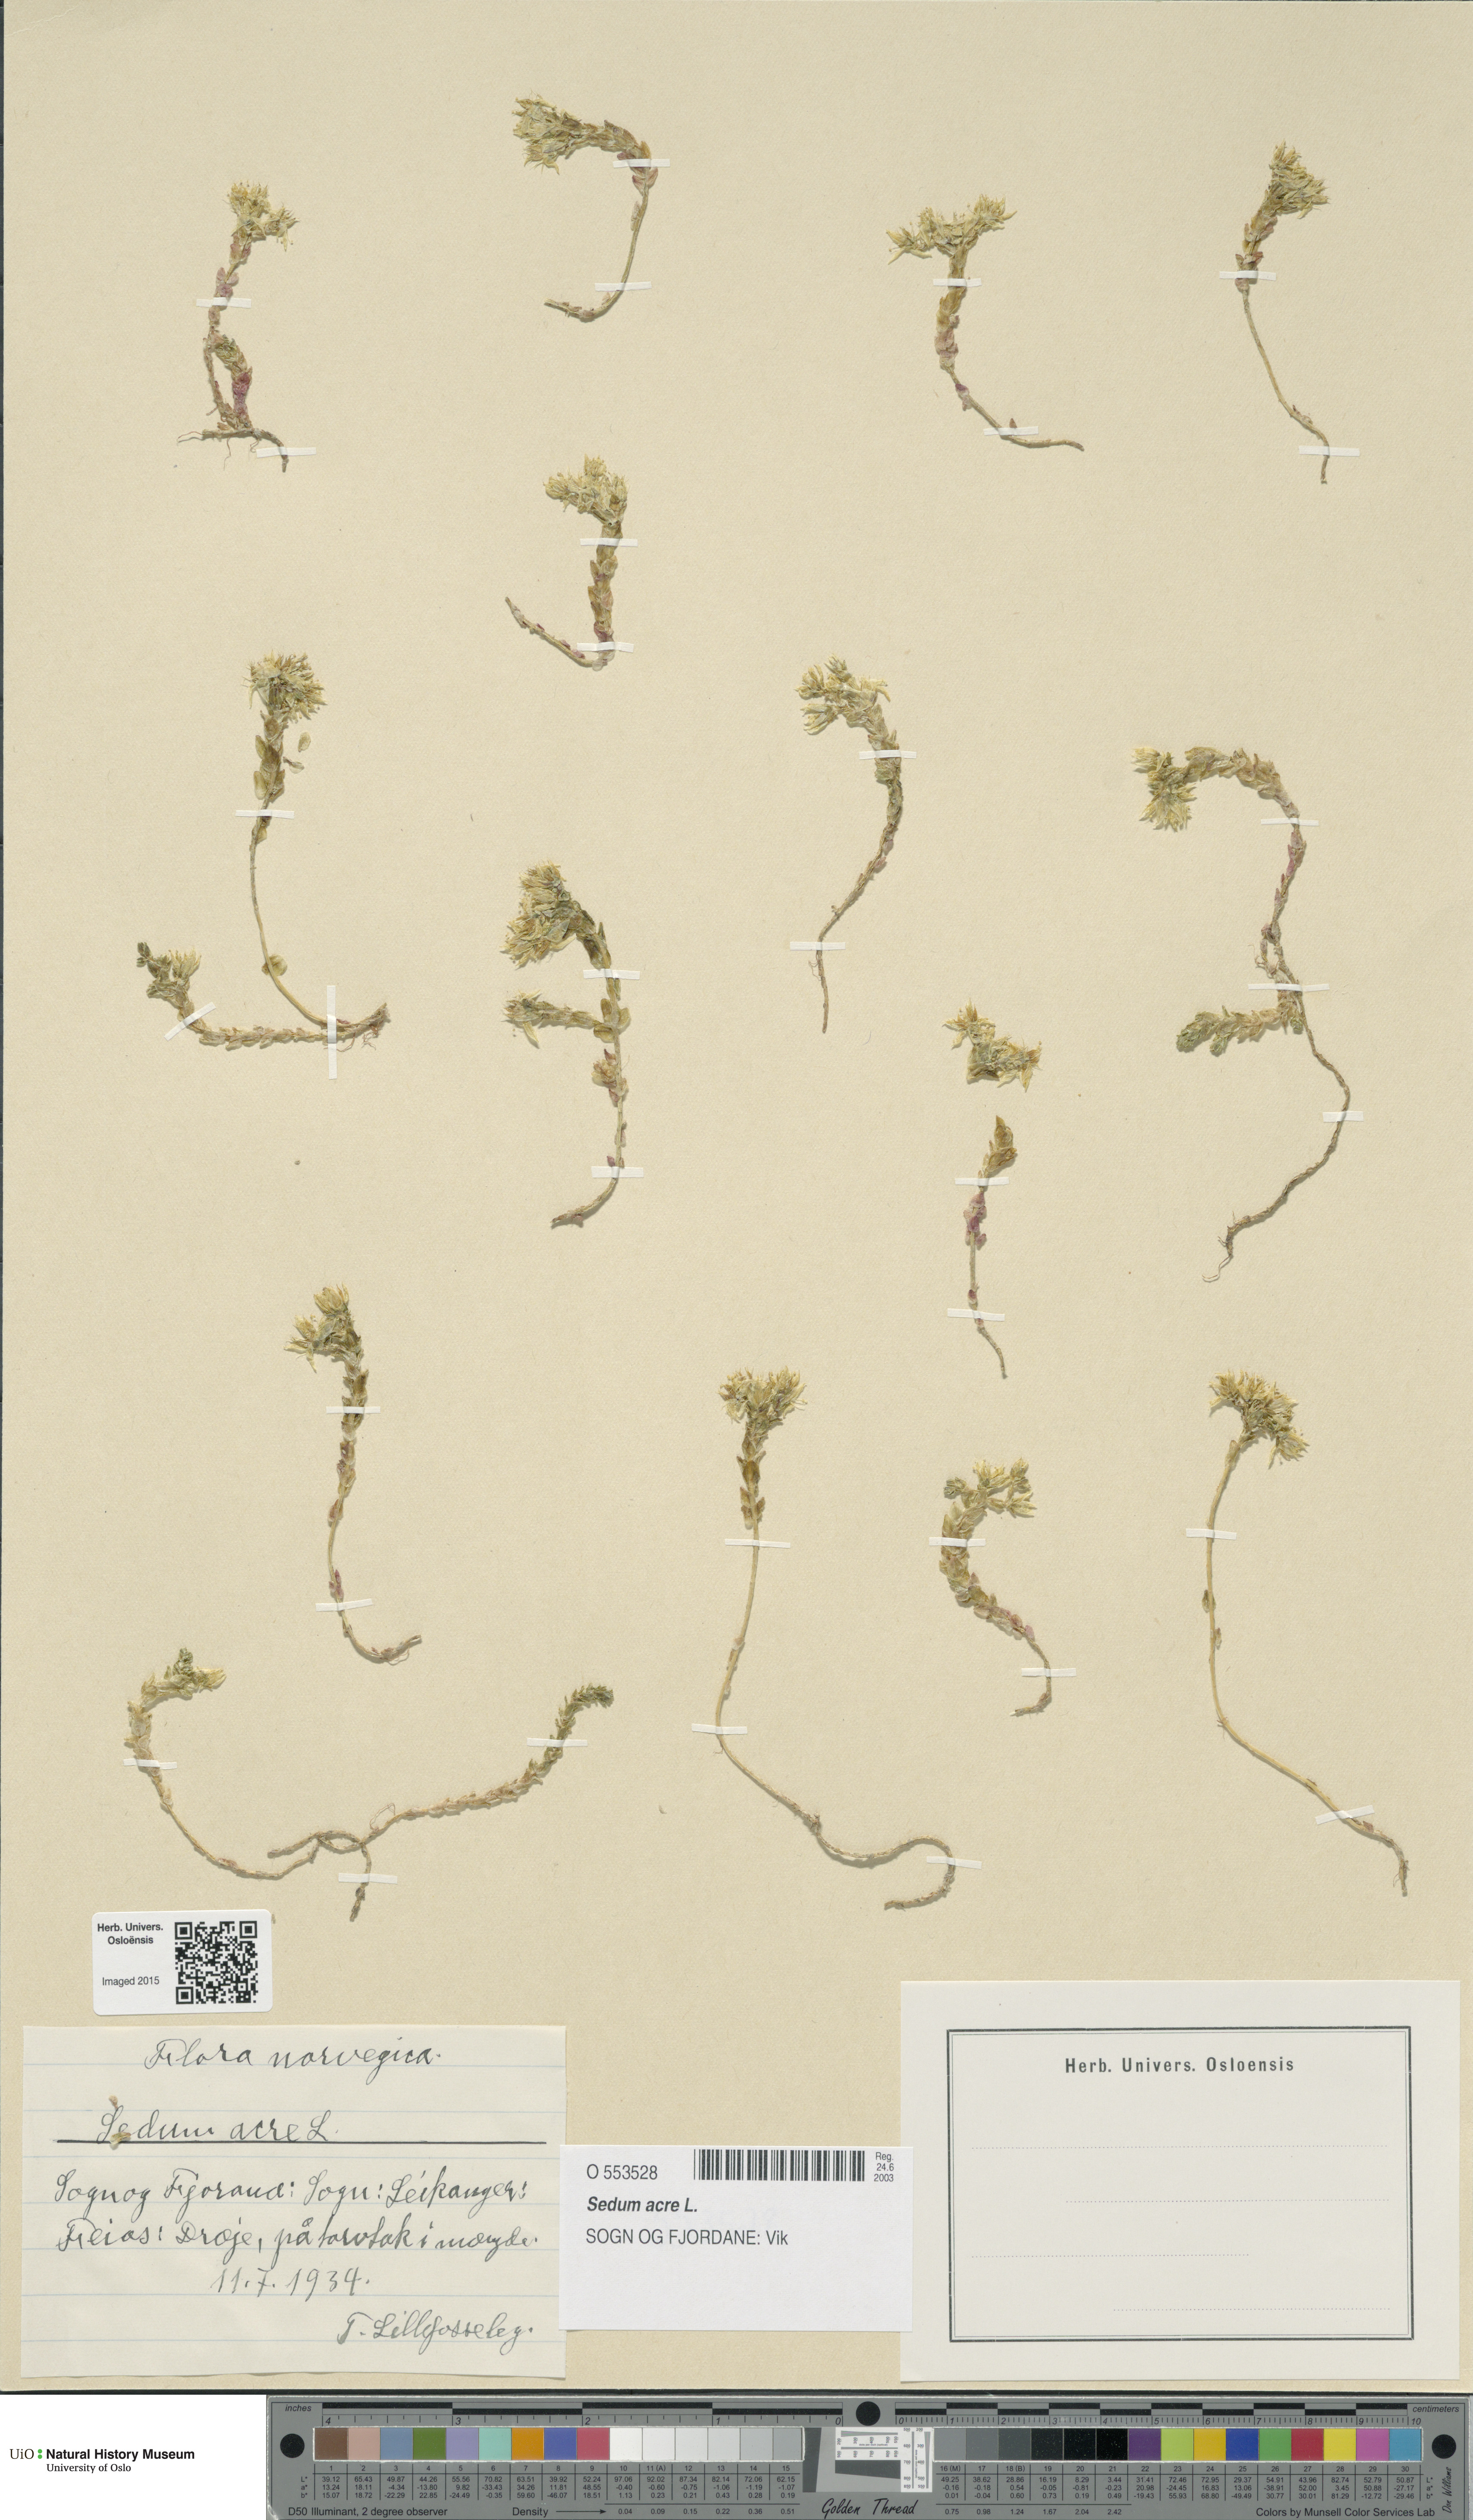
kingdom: Plantae
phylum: Tracheophyta
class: Magnoliopsida
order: Saxifragales
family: Crassulaceae
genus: Sedum
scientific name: Sedum acre
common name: Biting stonecrop
